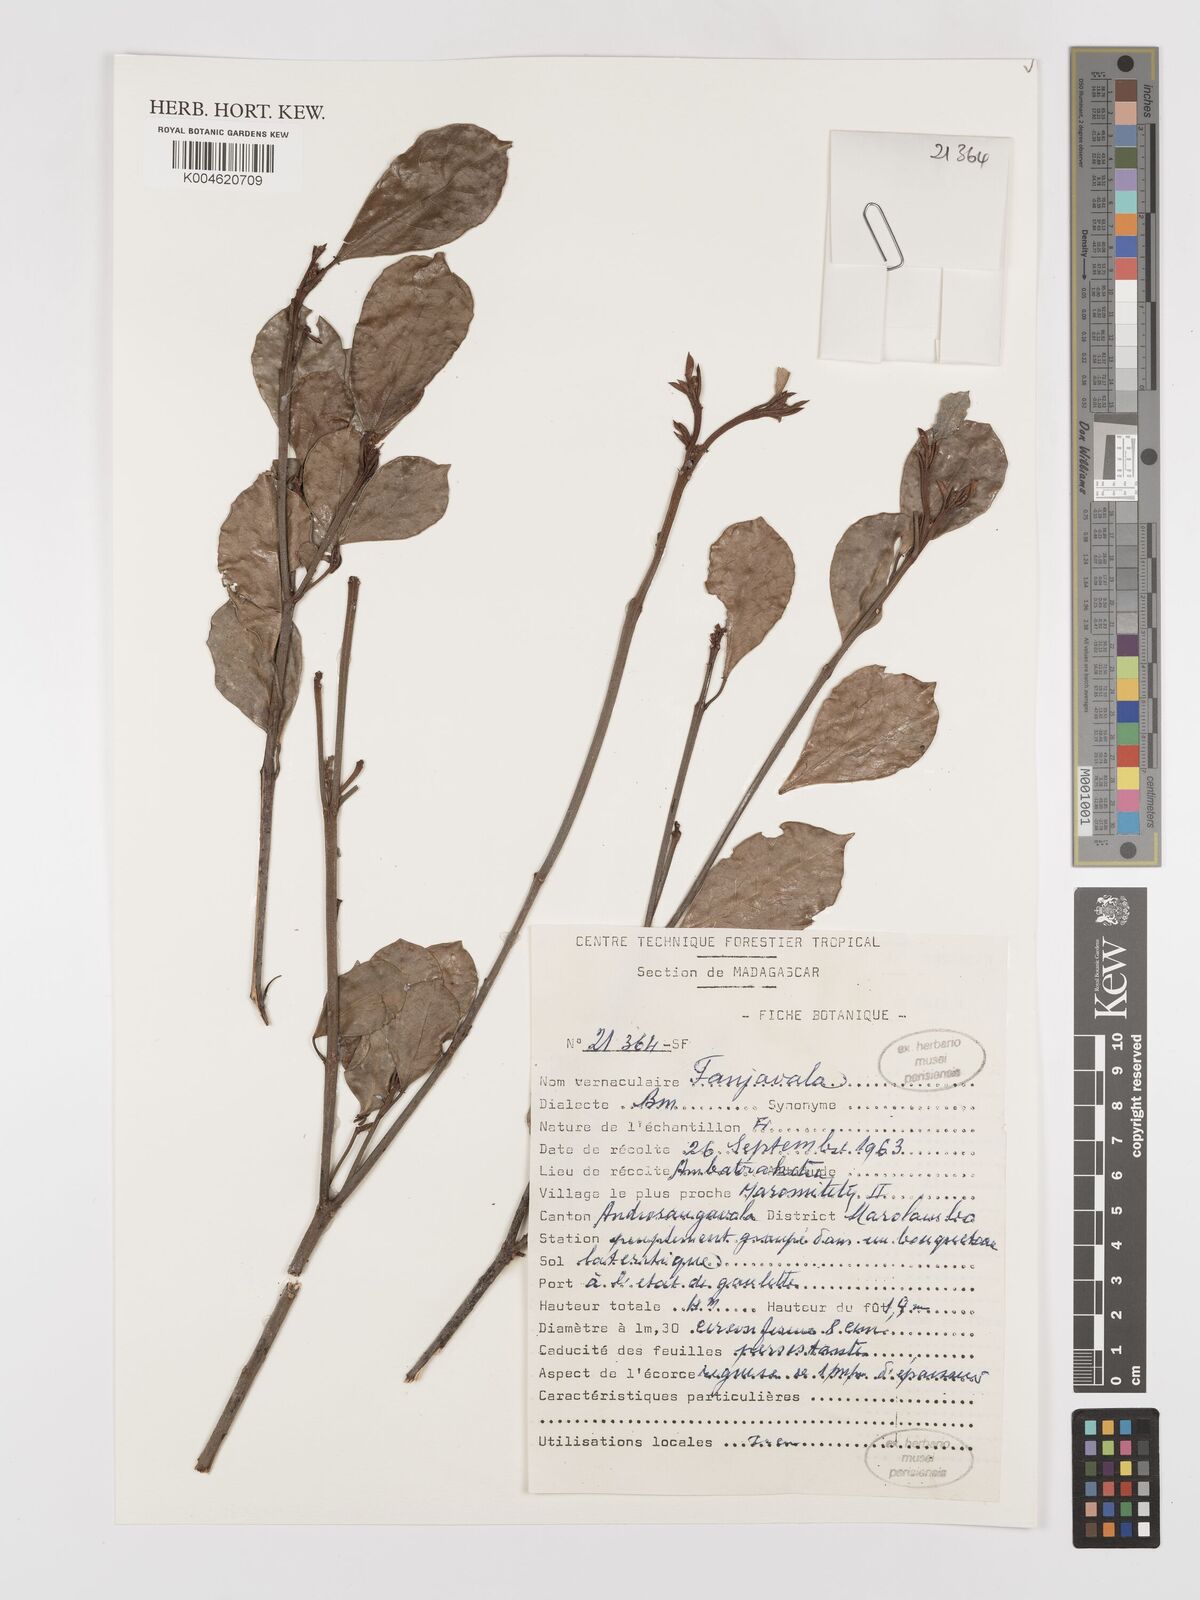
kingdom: Plantae
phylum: Tracheophyta
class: Magnoliopsida
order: Malpighiales
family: Euphorbiaceae
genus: Croton
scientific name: Croton
